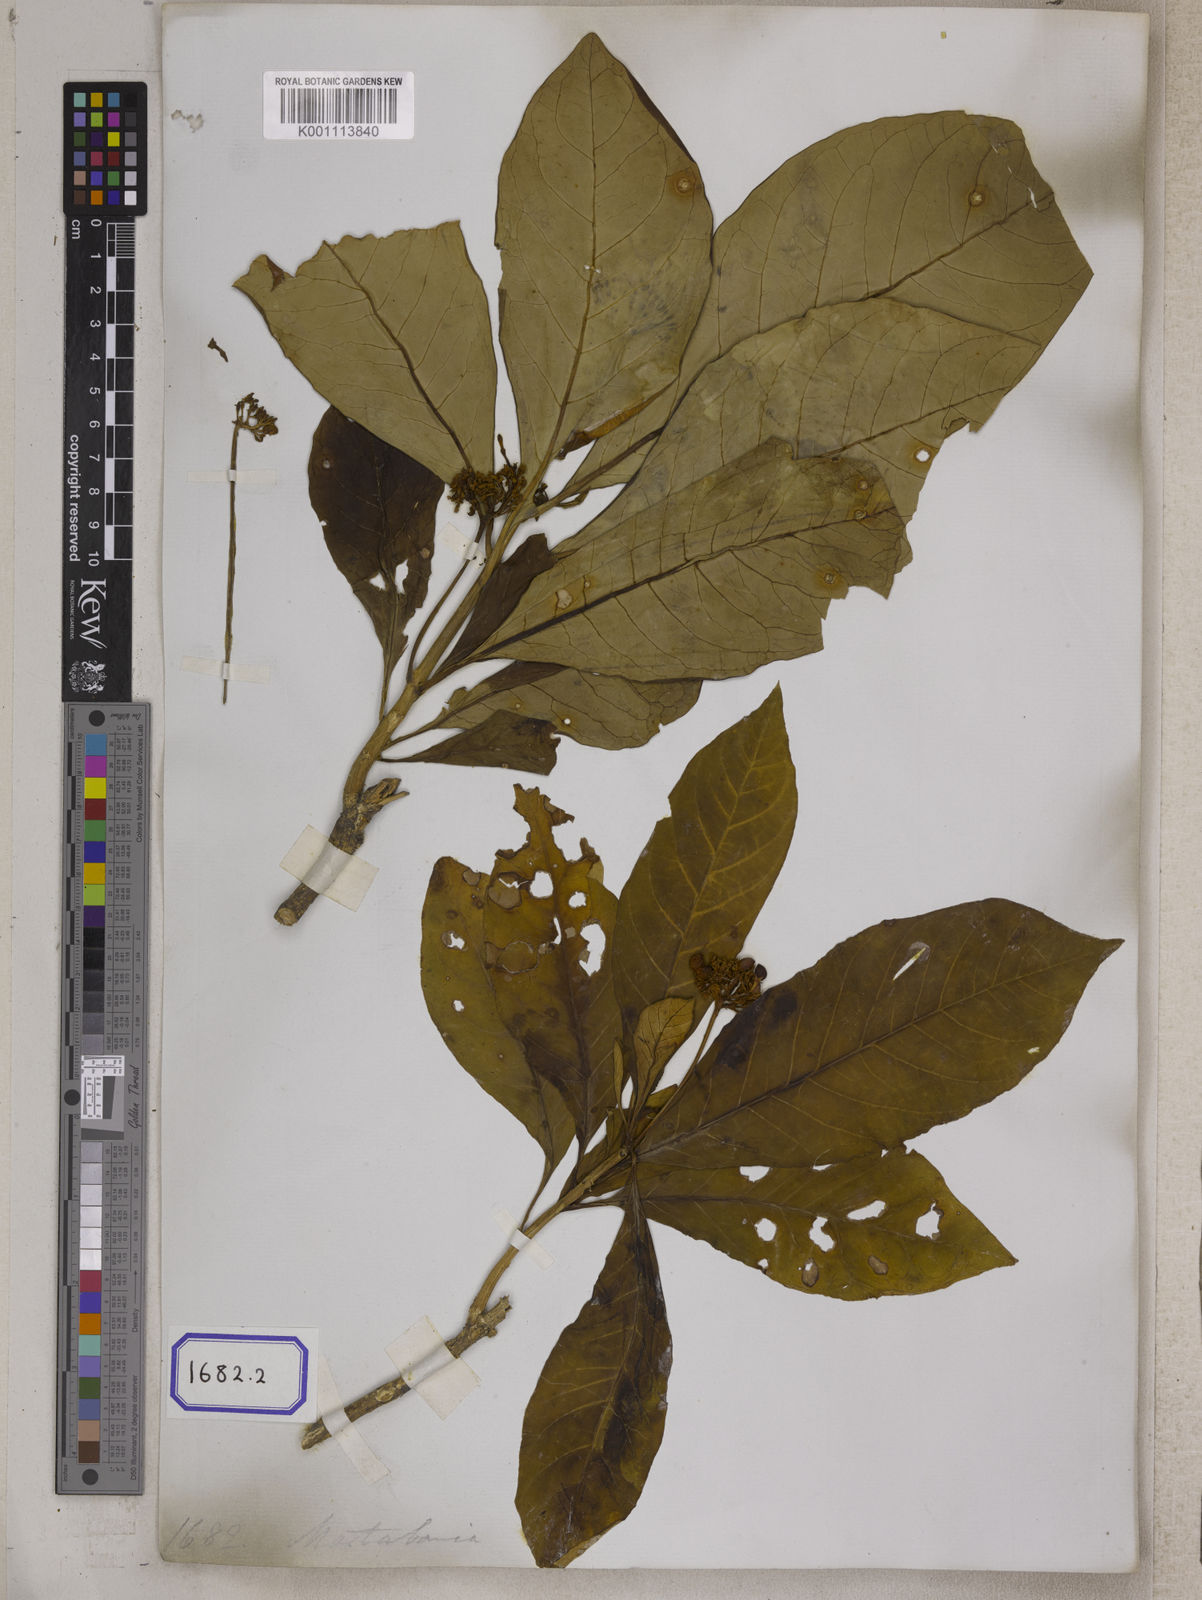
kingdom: Plantae
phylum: Tracheophyta
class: Magnoliopsida
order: Gentianales
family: Apocynaceae
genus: Rauvolfia
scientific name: Rauvolfia serpentina
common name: Ajmaline
